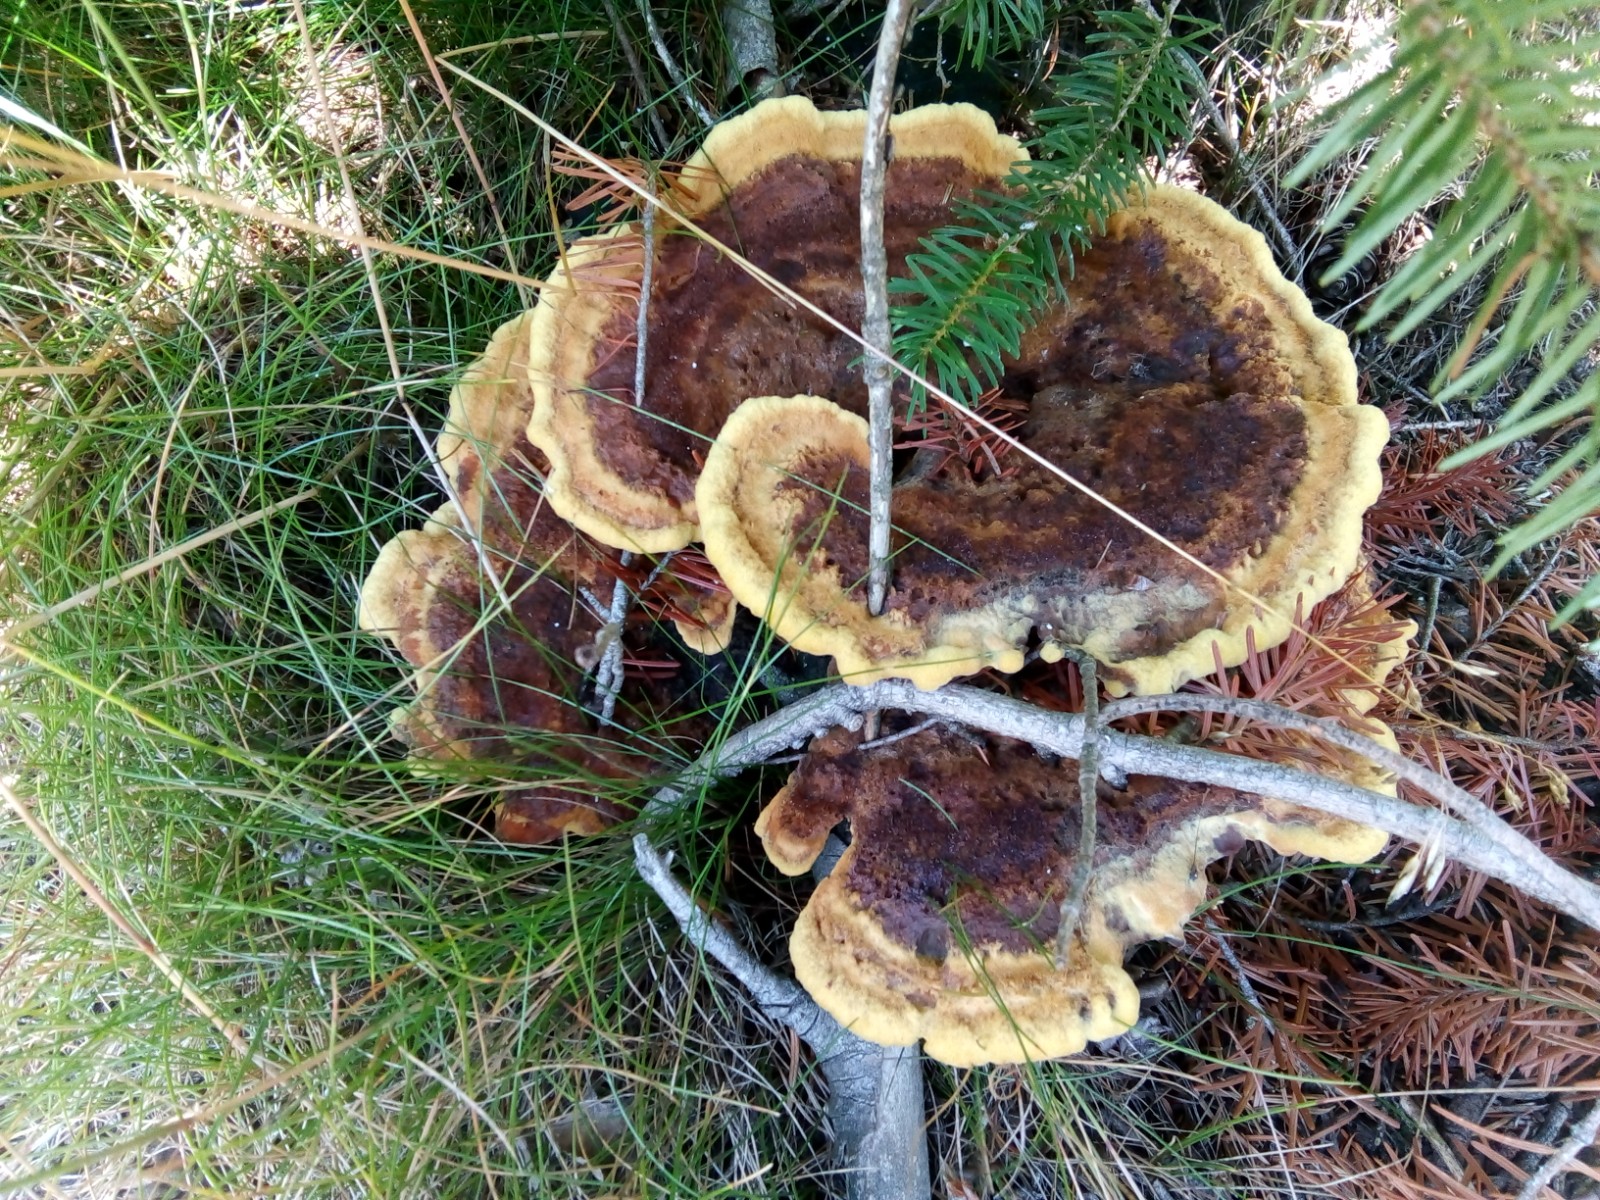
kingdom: Fungi
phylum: Basidiomycota
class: Agaricomycetes
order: Polyporales
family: Laetiporaceae
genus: Phaeolus
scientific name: Phaeolus schweinitzii
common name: brunporesvamp
